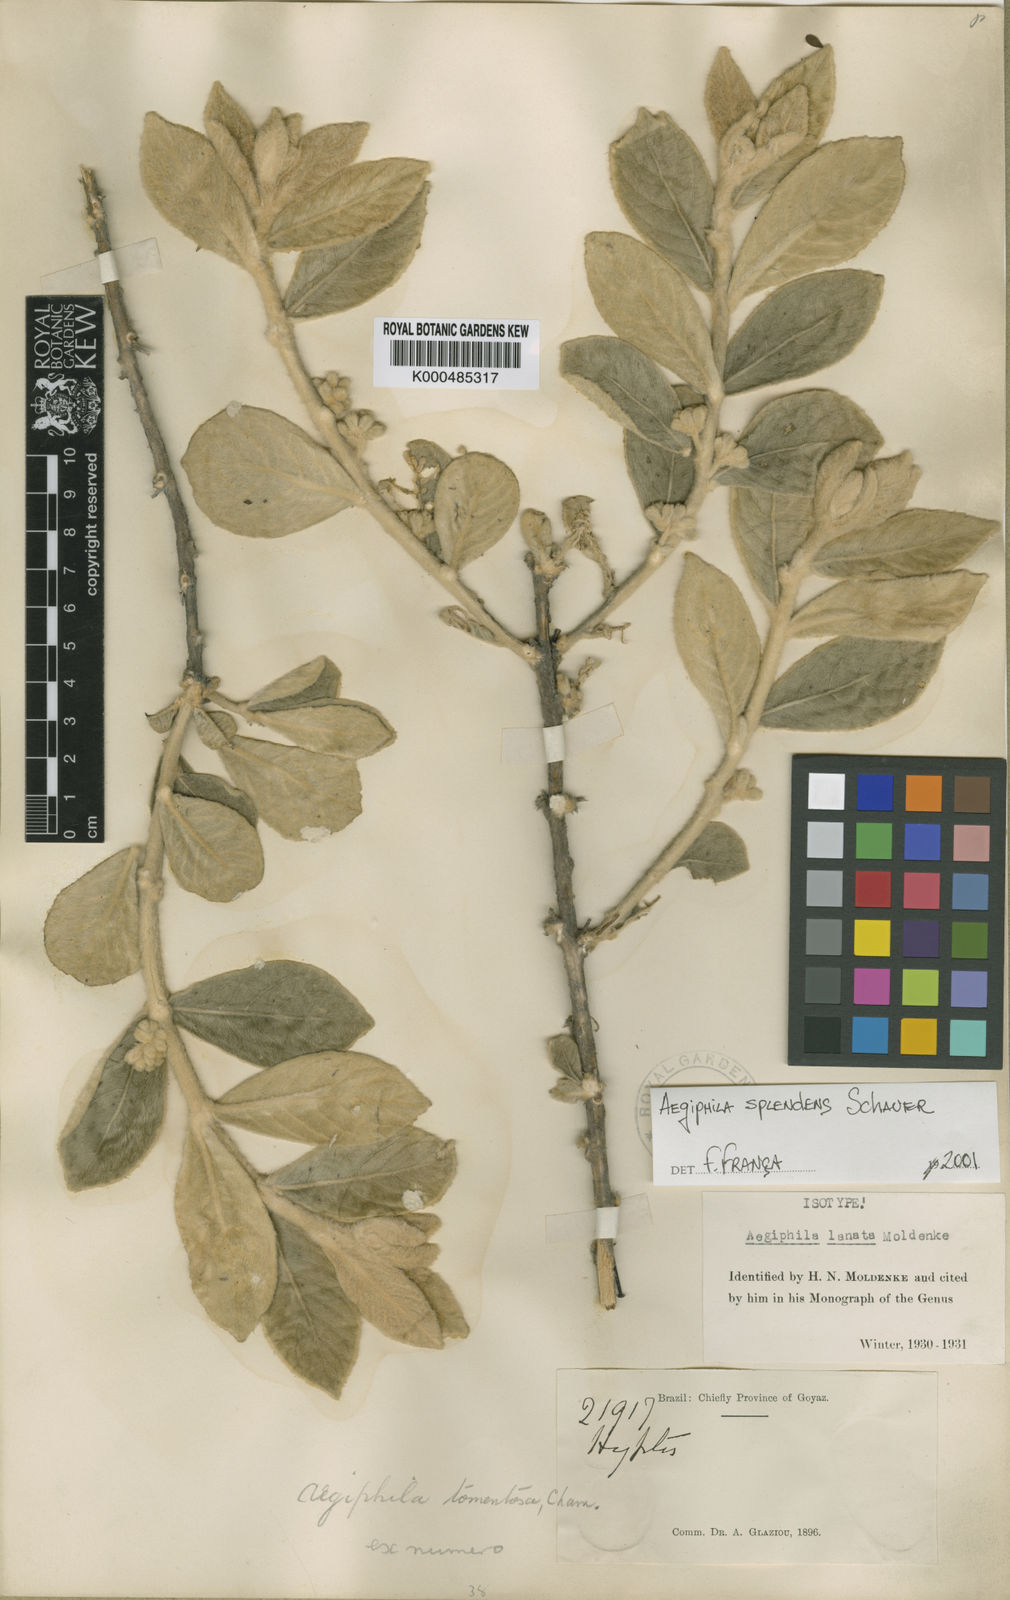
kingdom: Plantae
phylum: Tracheophyta
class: Magnoliopsida
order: Lamiales
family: Lamiaceae
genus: Aegiphila
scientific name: Aegiphila verticillata
